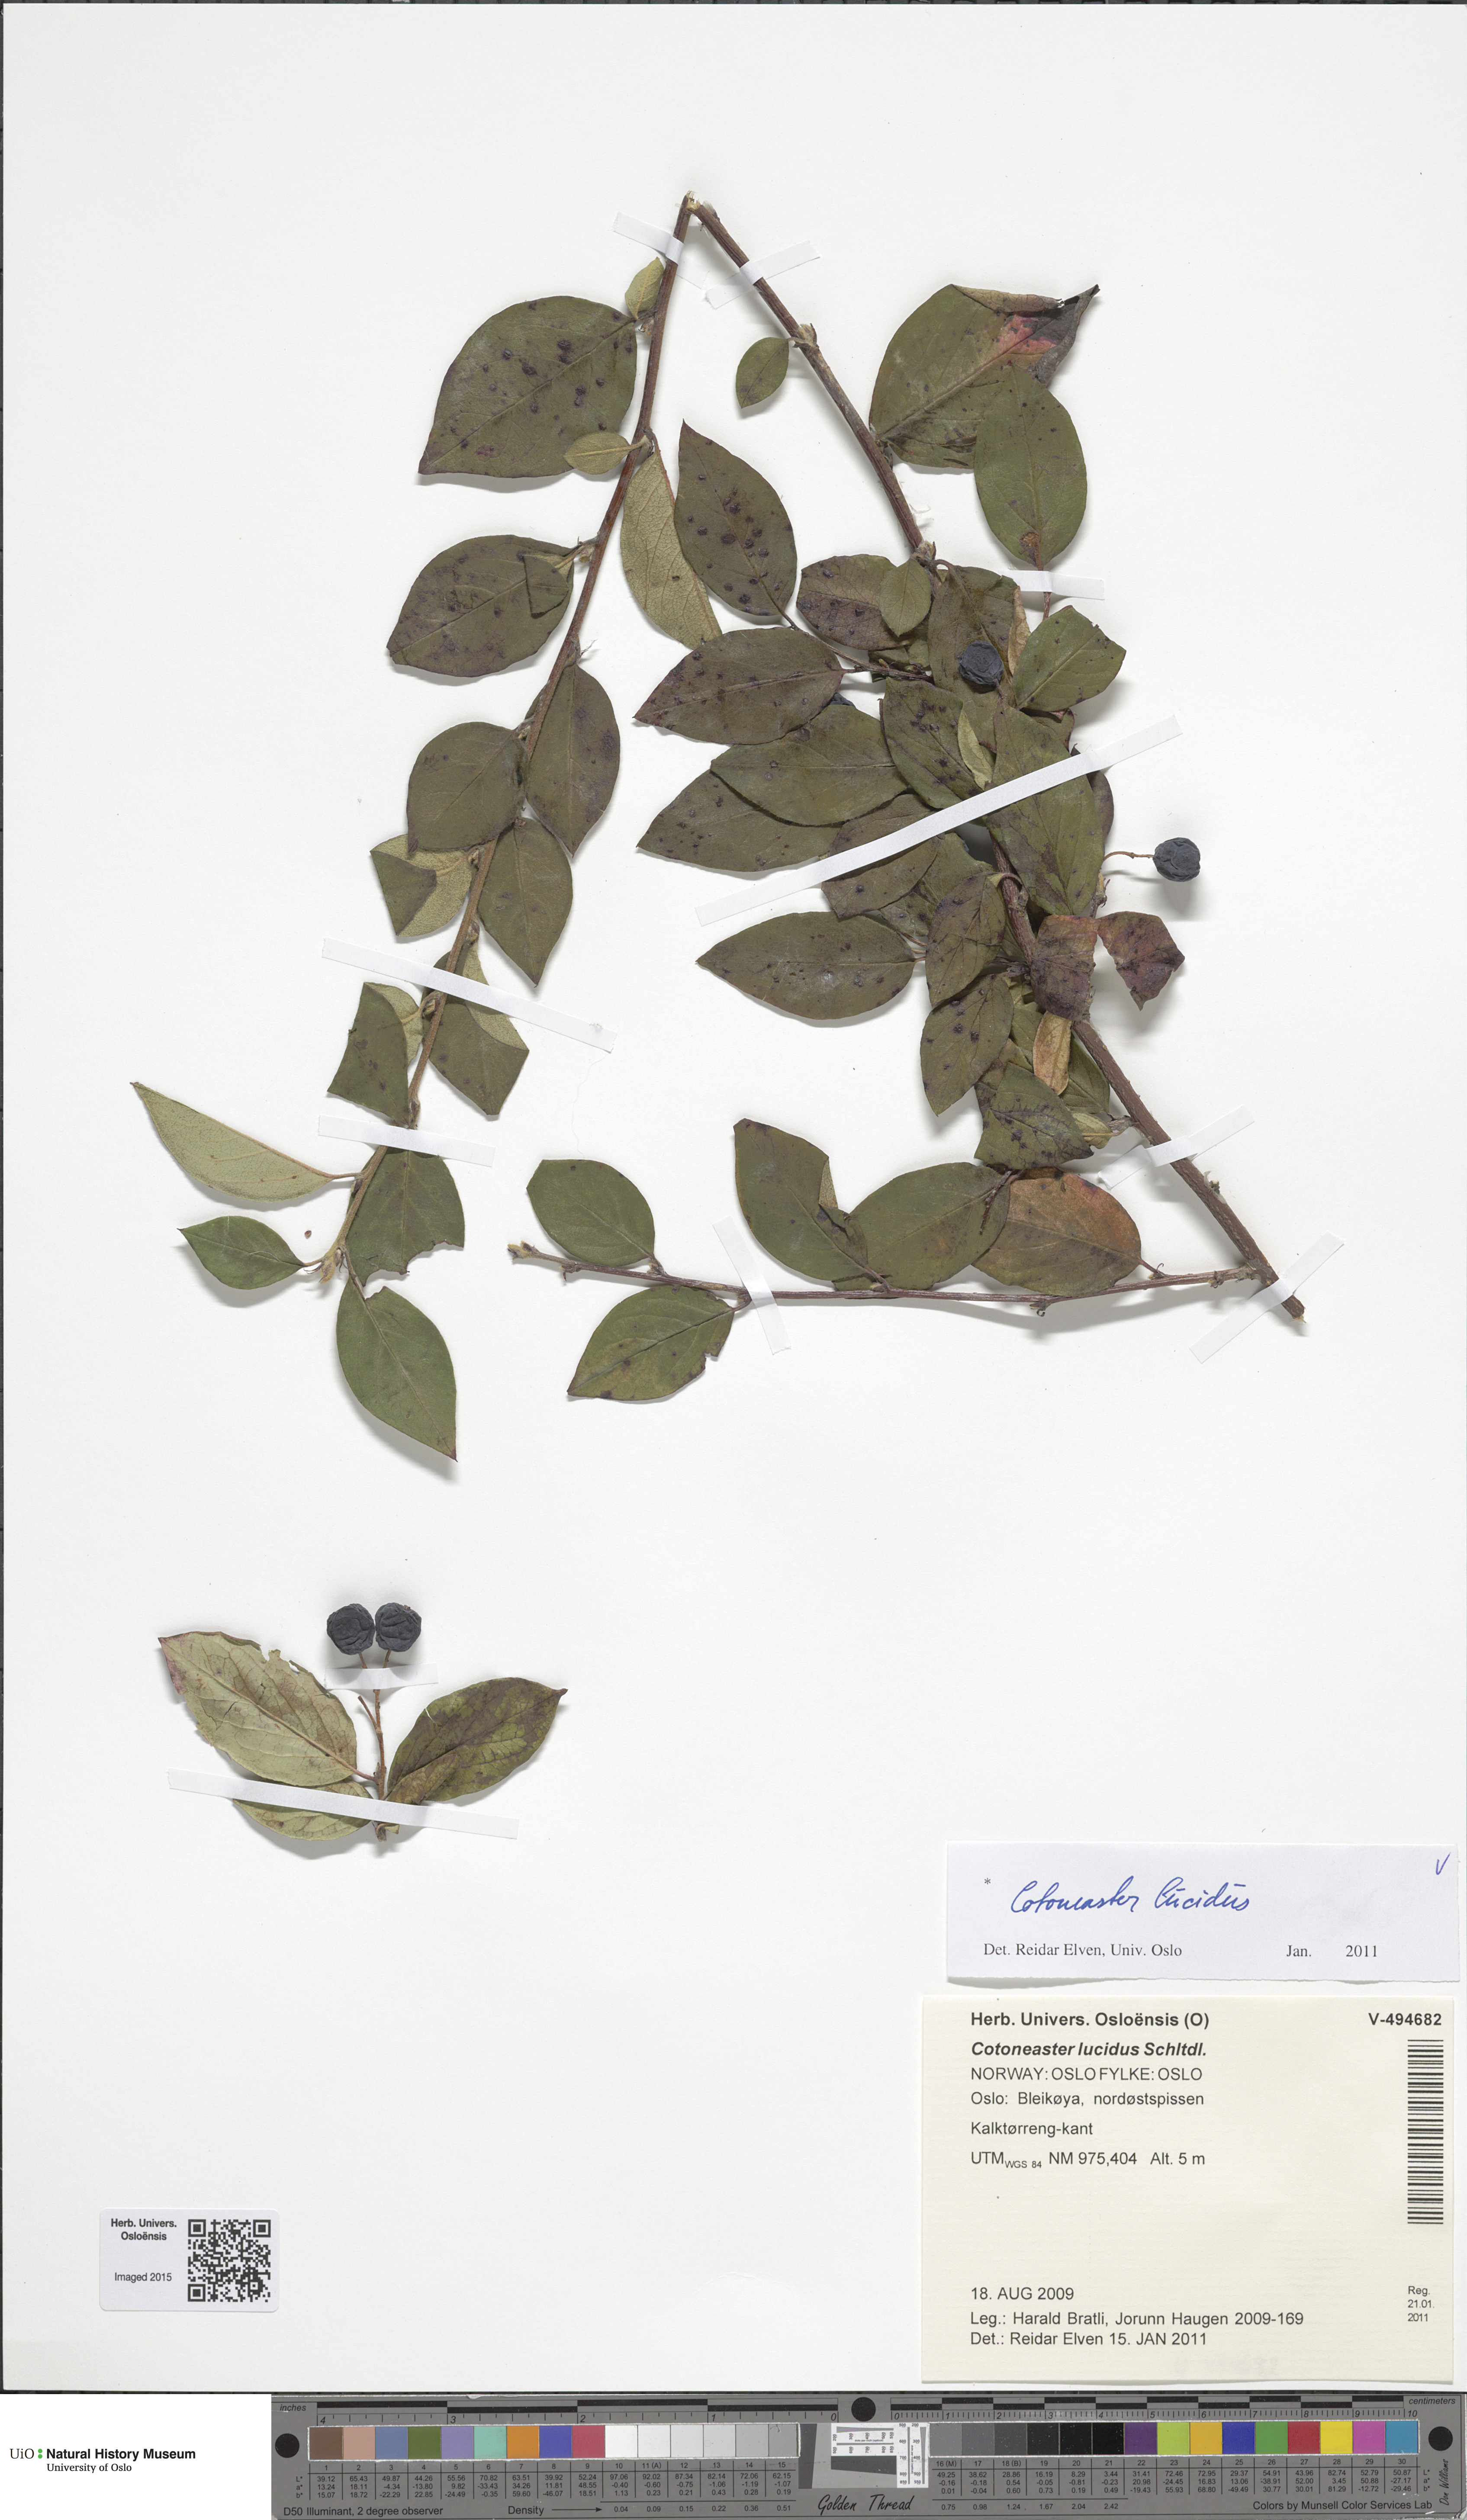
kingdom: Plantae
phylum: Tracheophyta
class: Magnoliopsida
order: Rosales
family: Rosaceae
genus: Cotoneaster
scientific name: Cotoneaster acutifolius
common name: Peking cotoneaster
